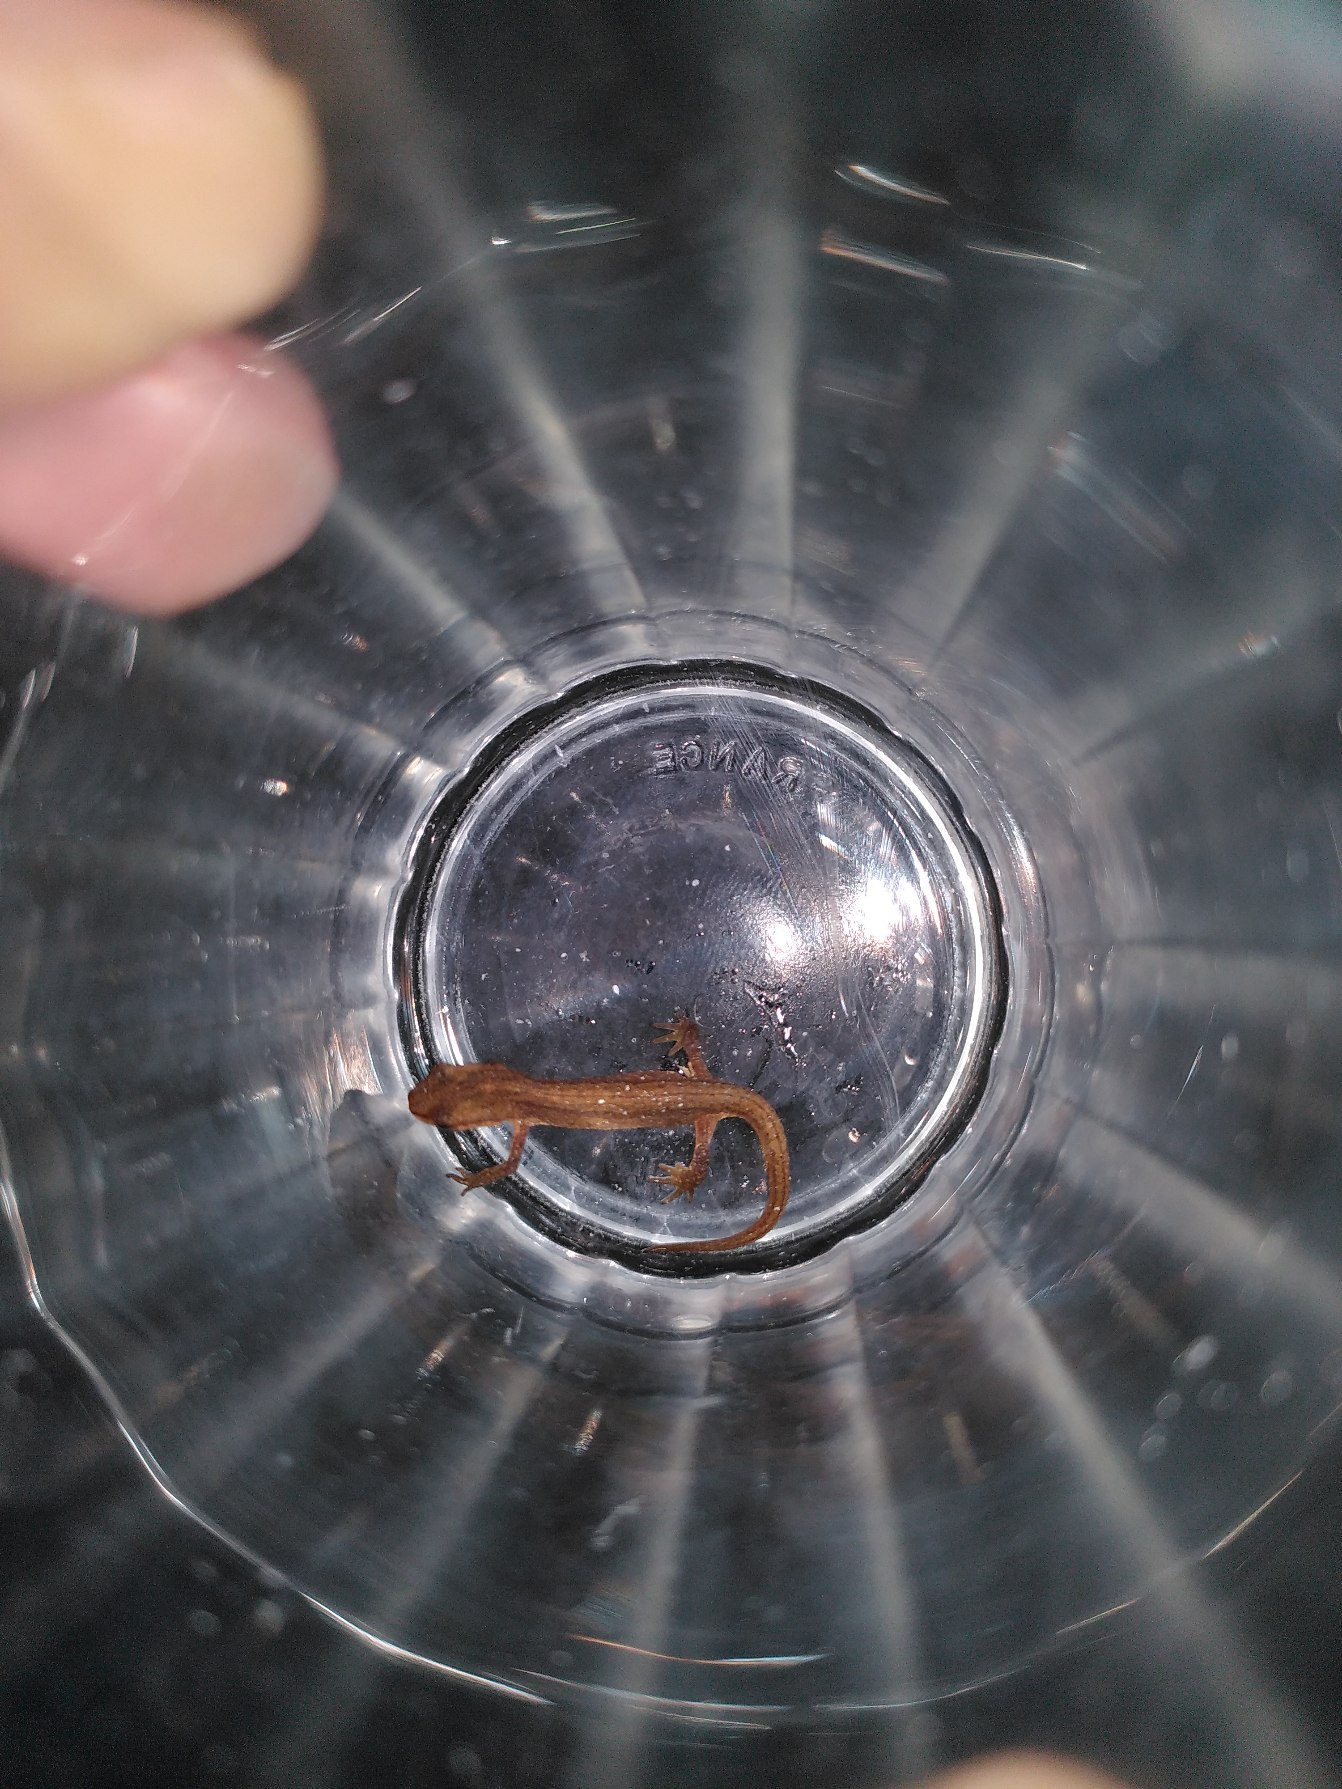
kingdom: Animalia
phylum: Chordata
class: Amphibia
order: Caudata
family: Salamandridae
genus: Lissotriton
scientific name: Lissotriton vulgaris
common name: Lille vandsalamander
